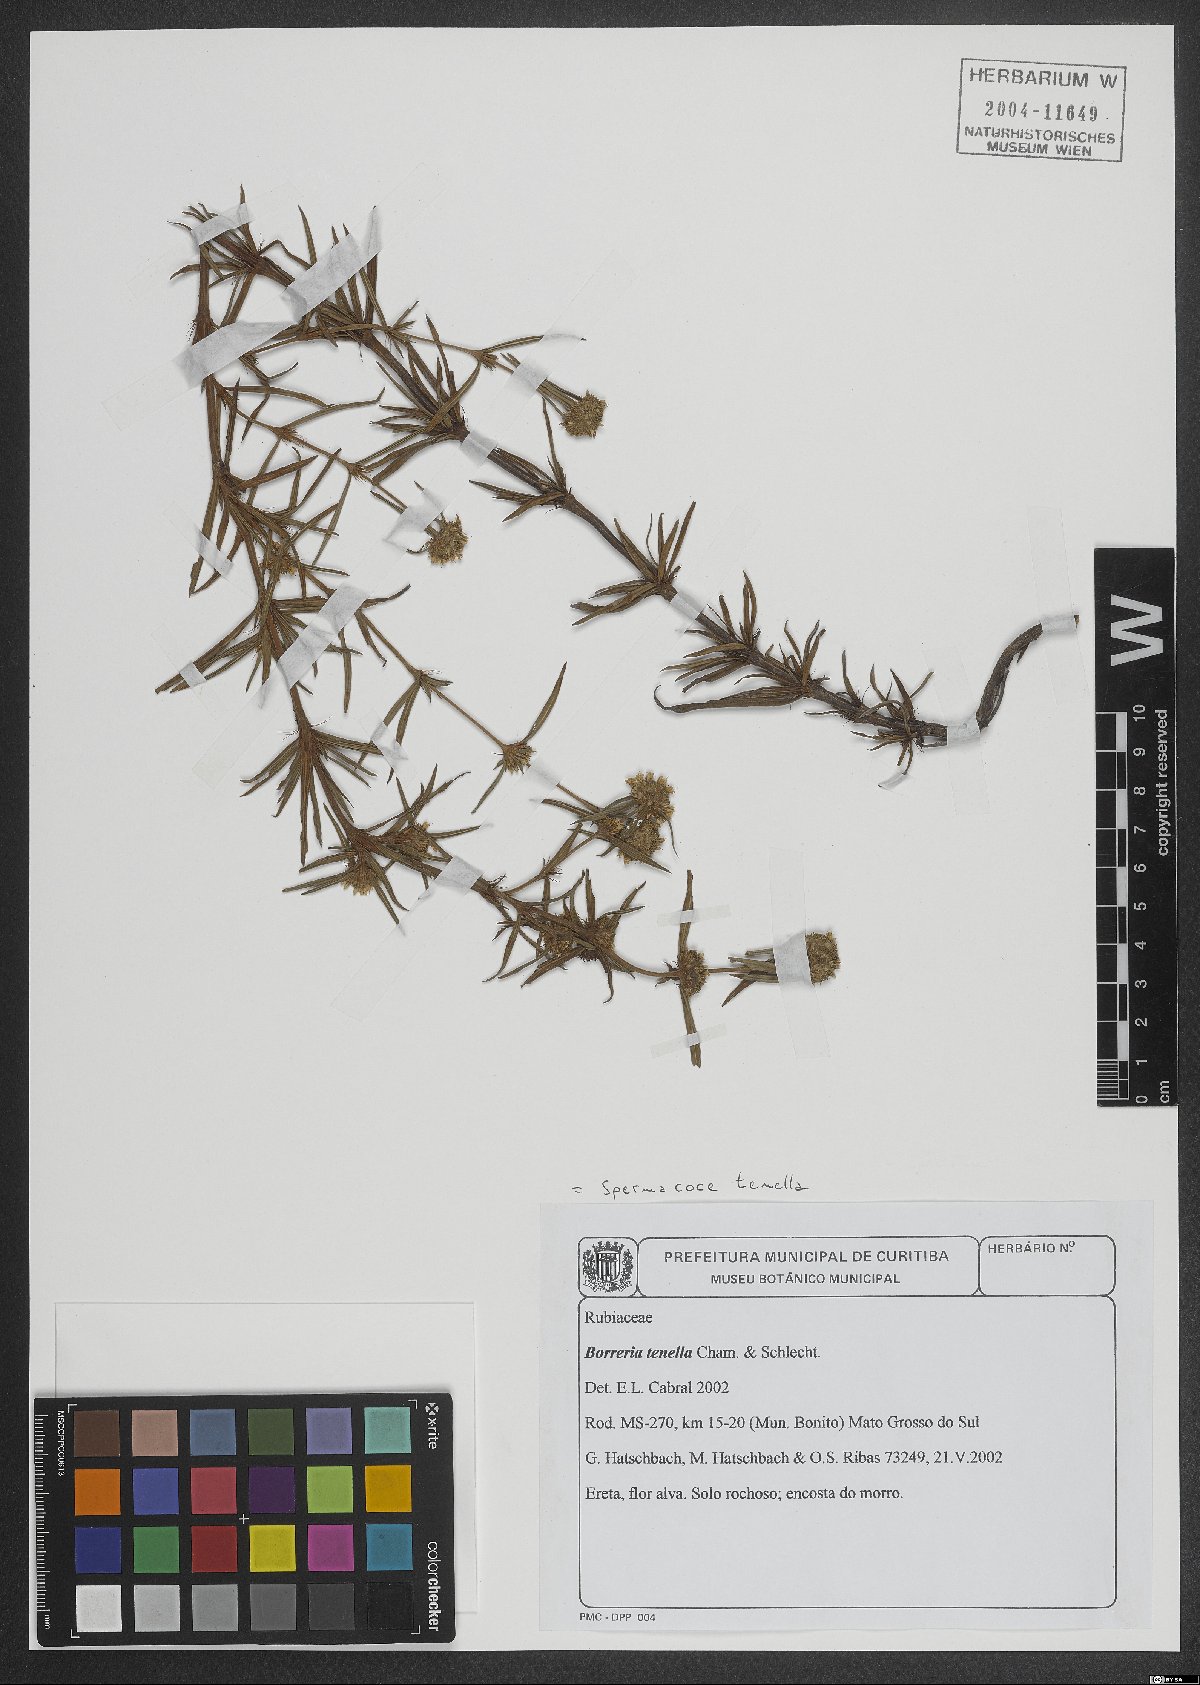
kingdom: Plantae
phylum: Tracheophyta
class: Magnoliopsida
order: Gentianales
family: Rubiaceae
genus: Spermacoce
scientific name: Spermacoce orinocensis
